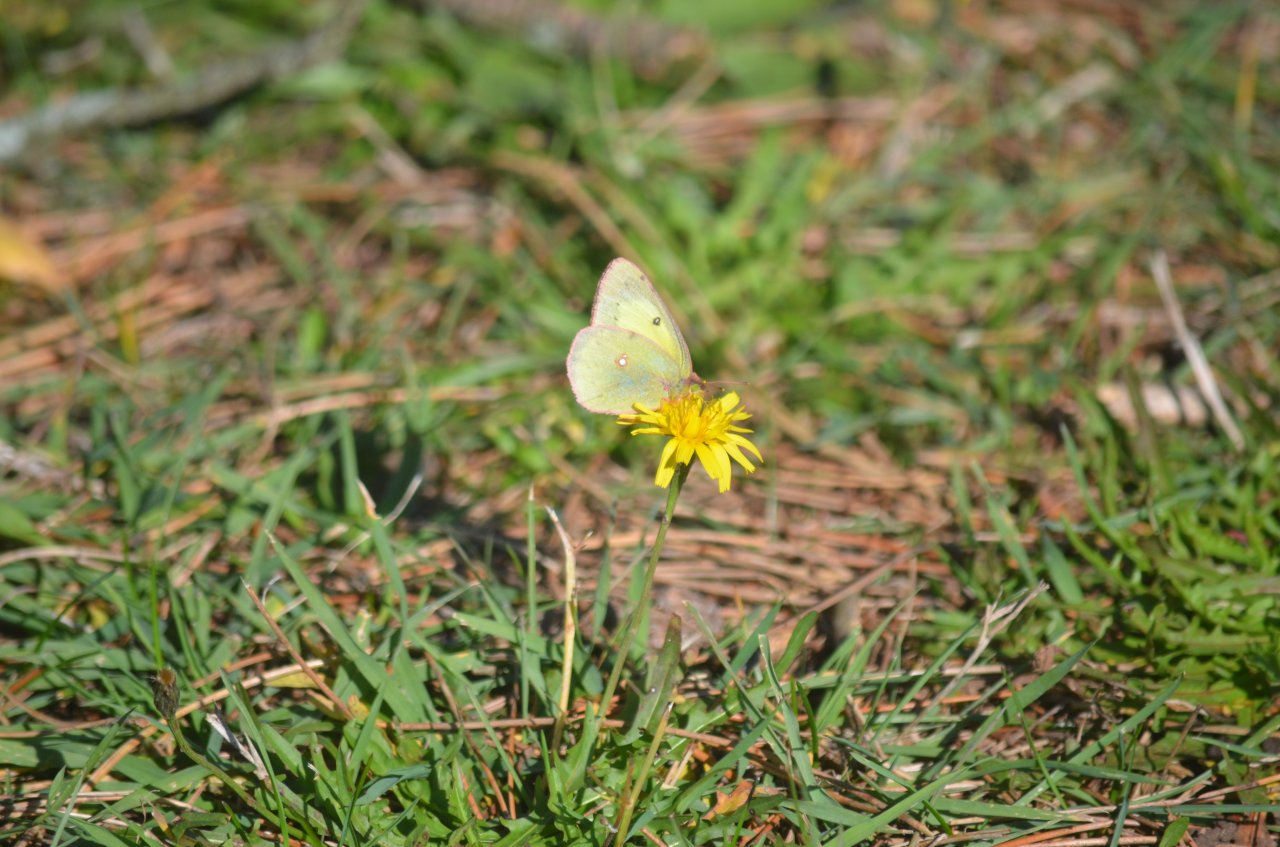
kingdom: Animalia
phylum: Arthropoda
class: Insecta
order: Lepidoptera
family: Pieridae
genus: Colias
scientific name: Colias philodice
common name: Clouded Sulphur
